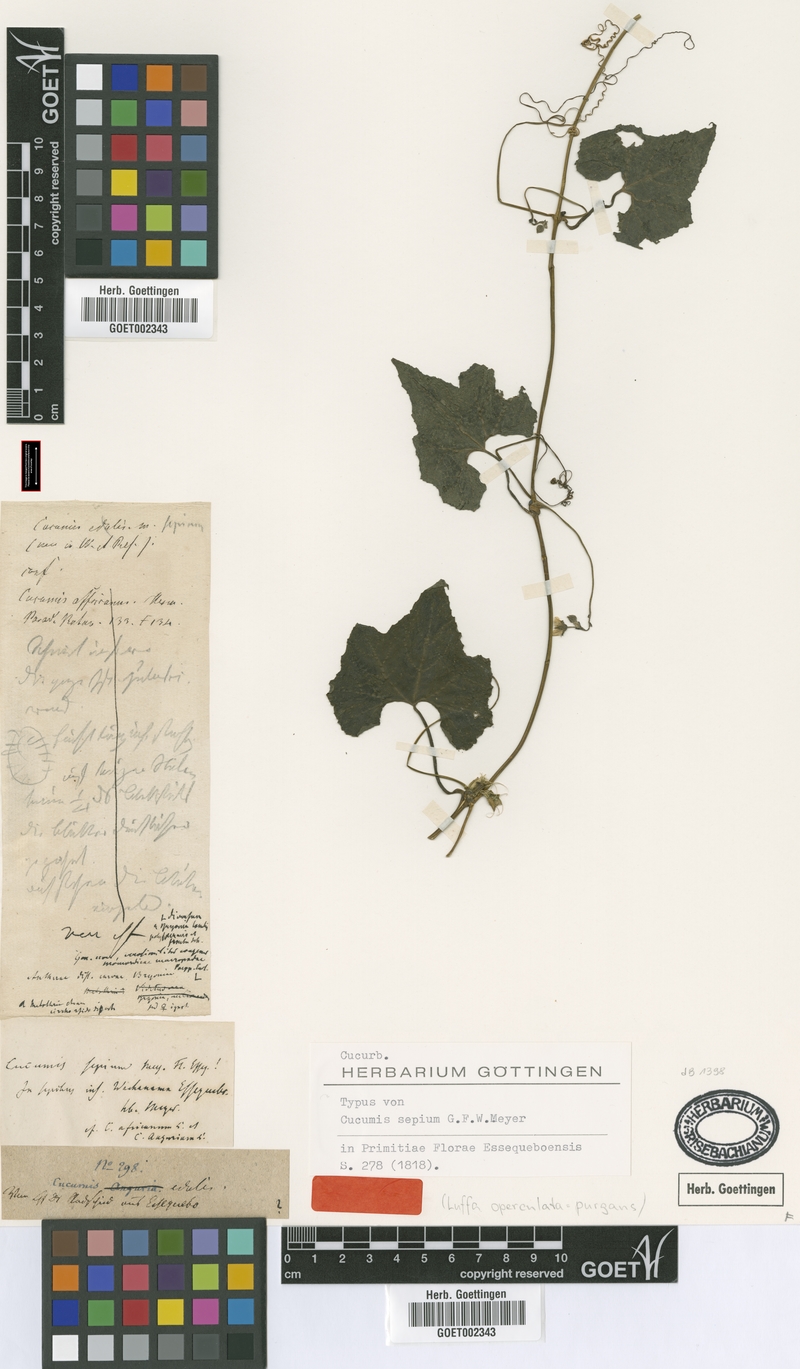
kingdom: Plantae
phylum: Tracheophyta
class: Magnoliopsida
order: Cucurbitales
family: Cucurbitaceae
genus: Luffa
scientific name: Luffa sepium
